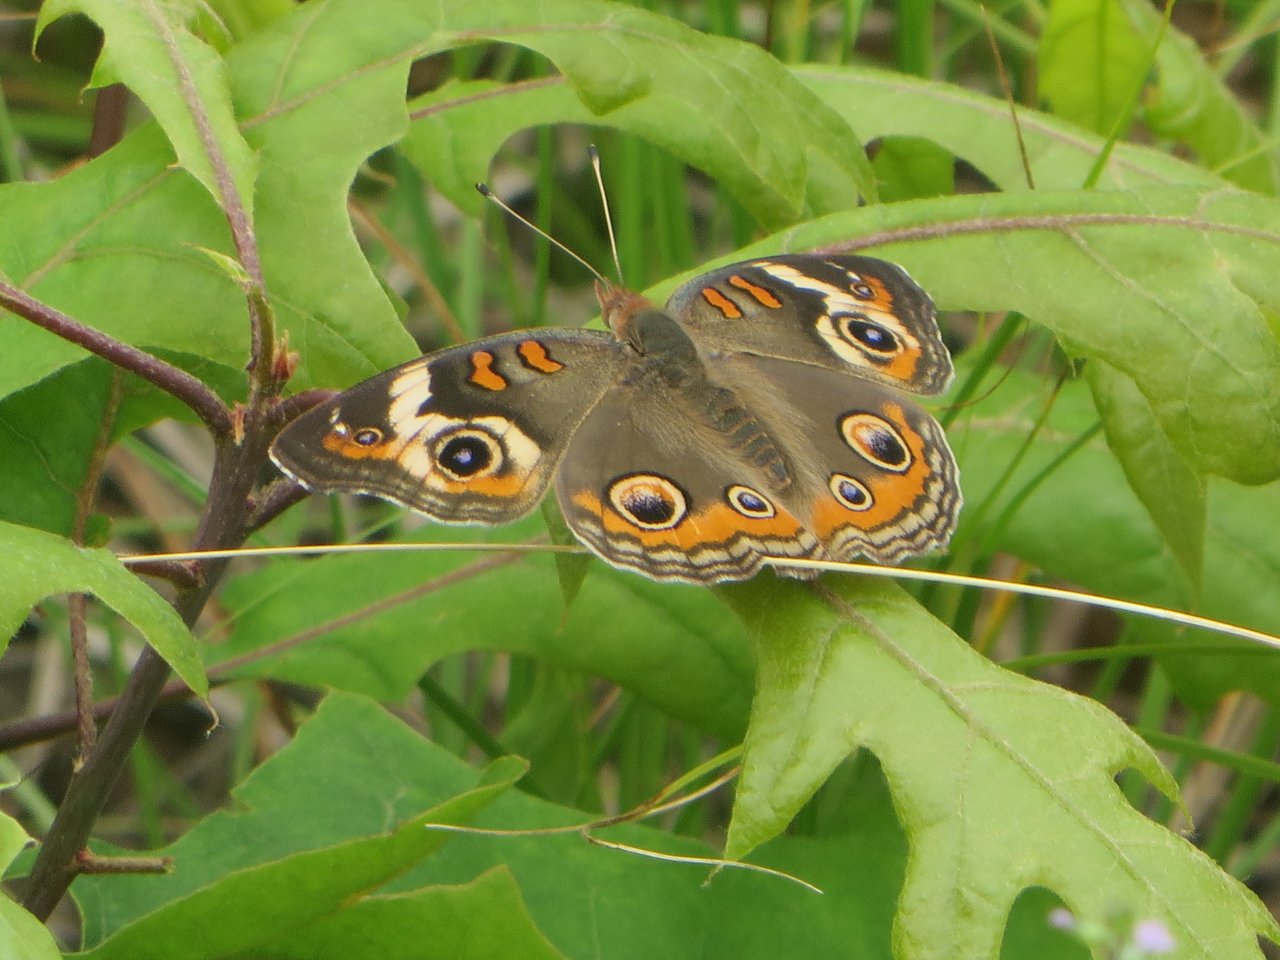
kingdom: Animalia
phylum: Arthropoda
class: Insecta
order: Lepidoptera
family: Nymphalidae
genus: Junonia
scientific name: Junonia coenia
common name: Common Buckeye
